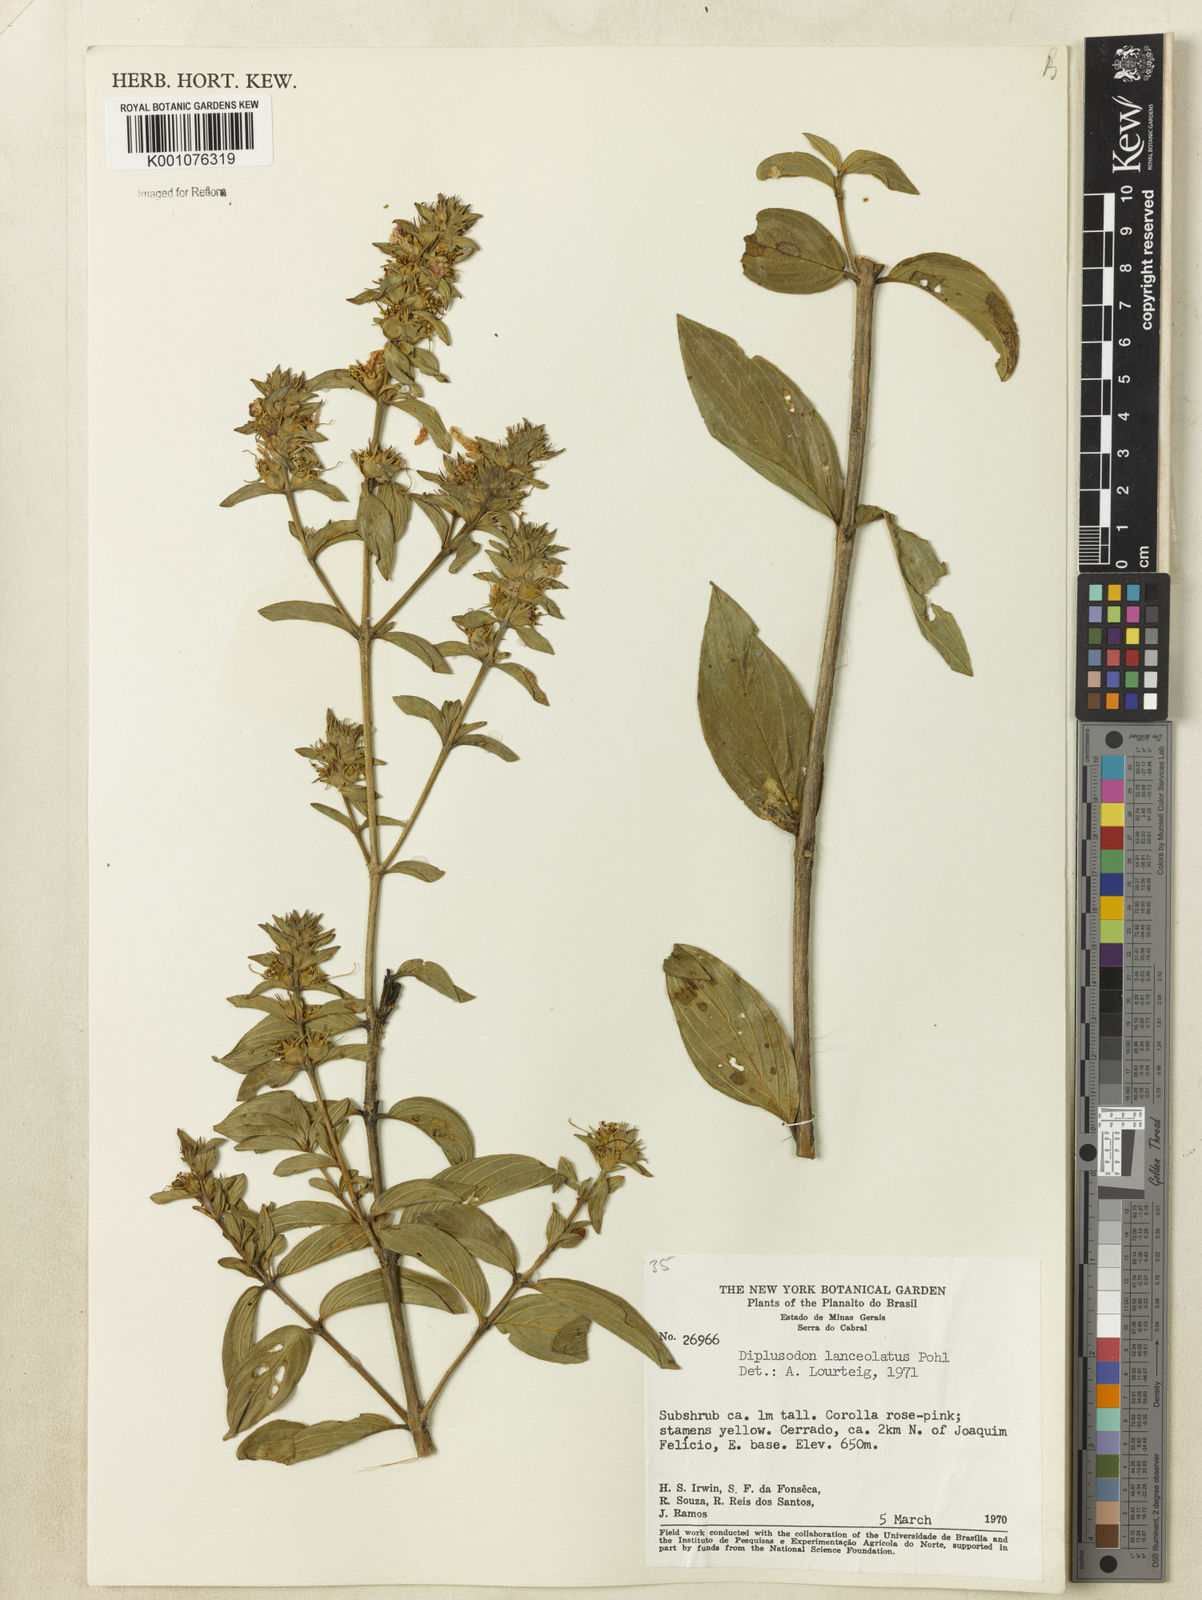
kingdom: Plantae
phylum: Tracheophyta
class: Magnoliopsida
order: Myrtales
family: Lythraceae
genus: Diplusodon
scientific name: Diplusodon lanceolatus
